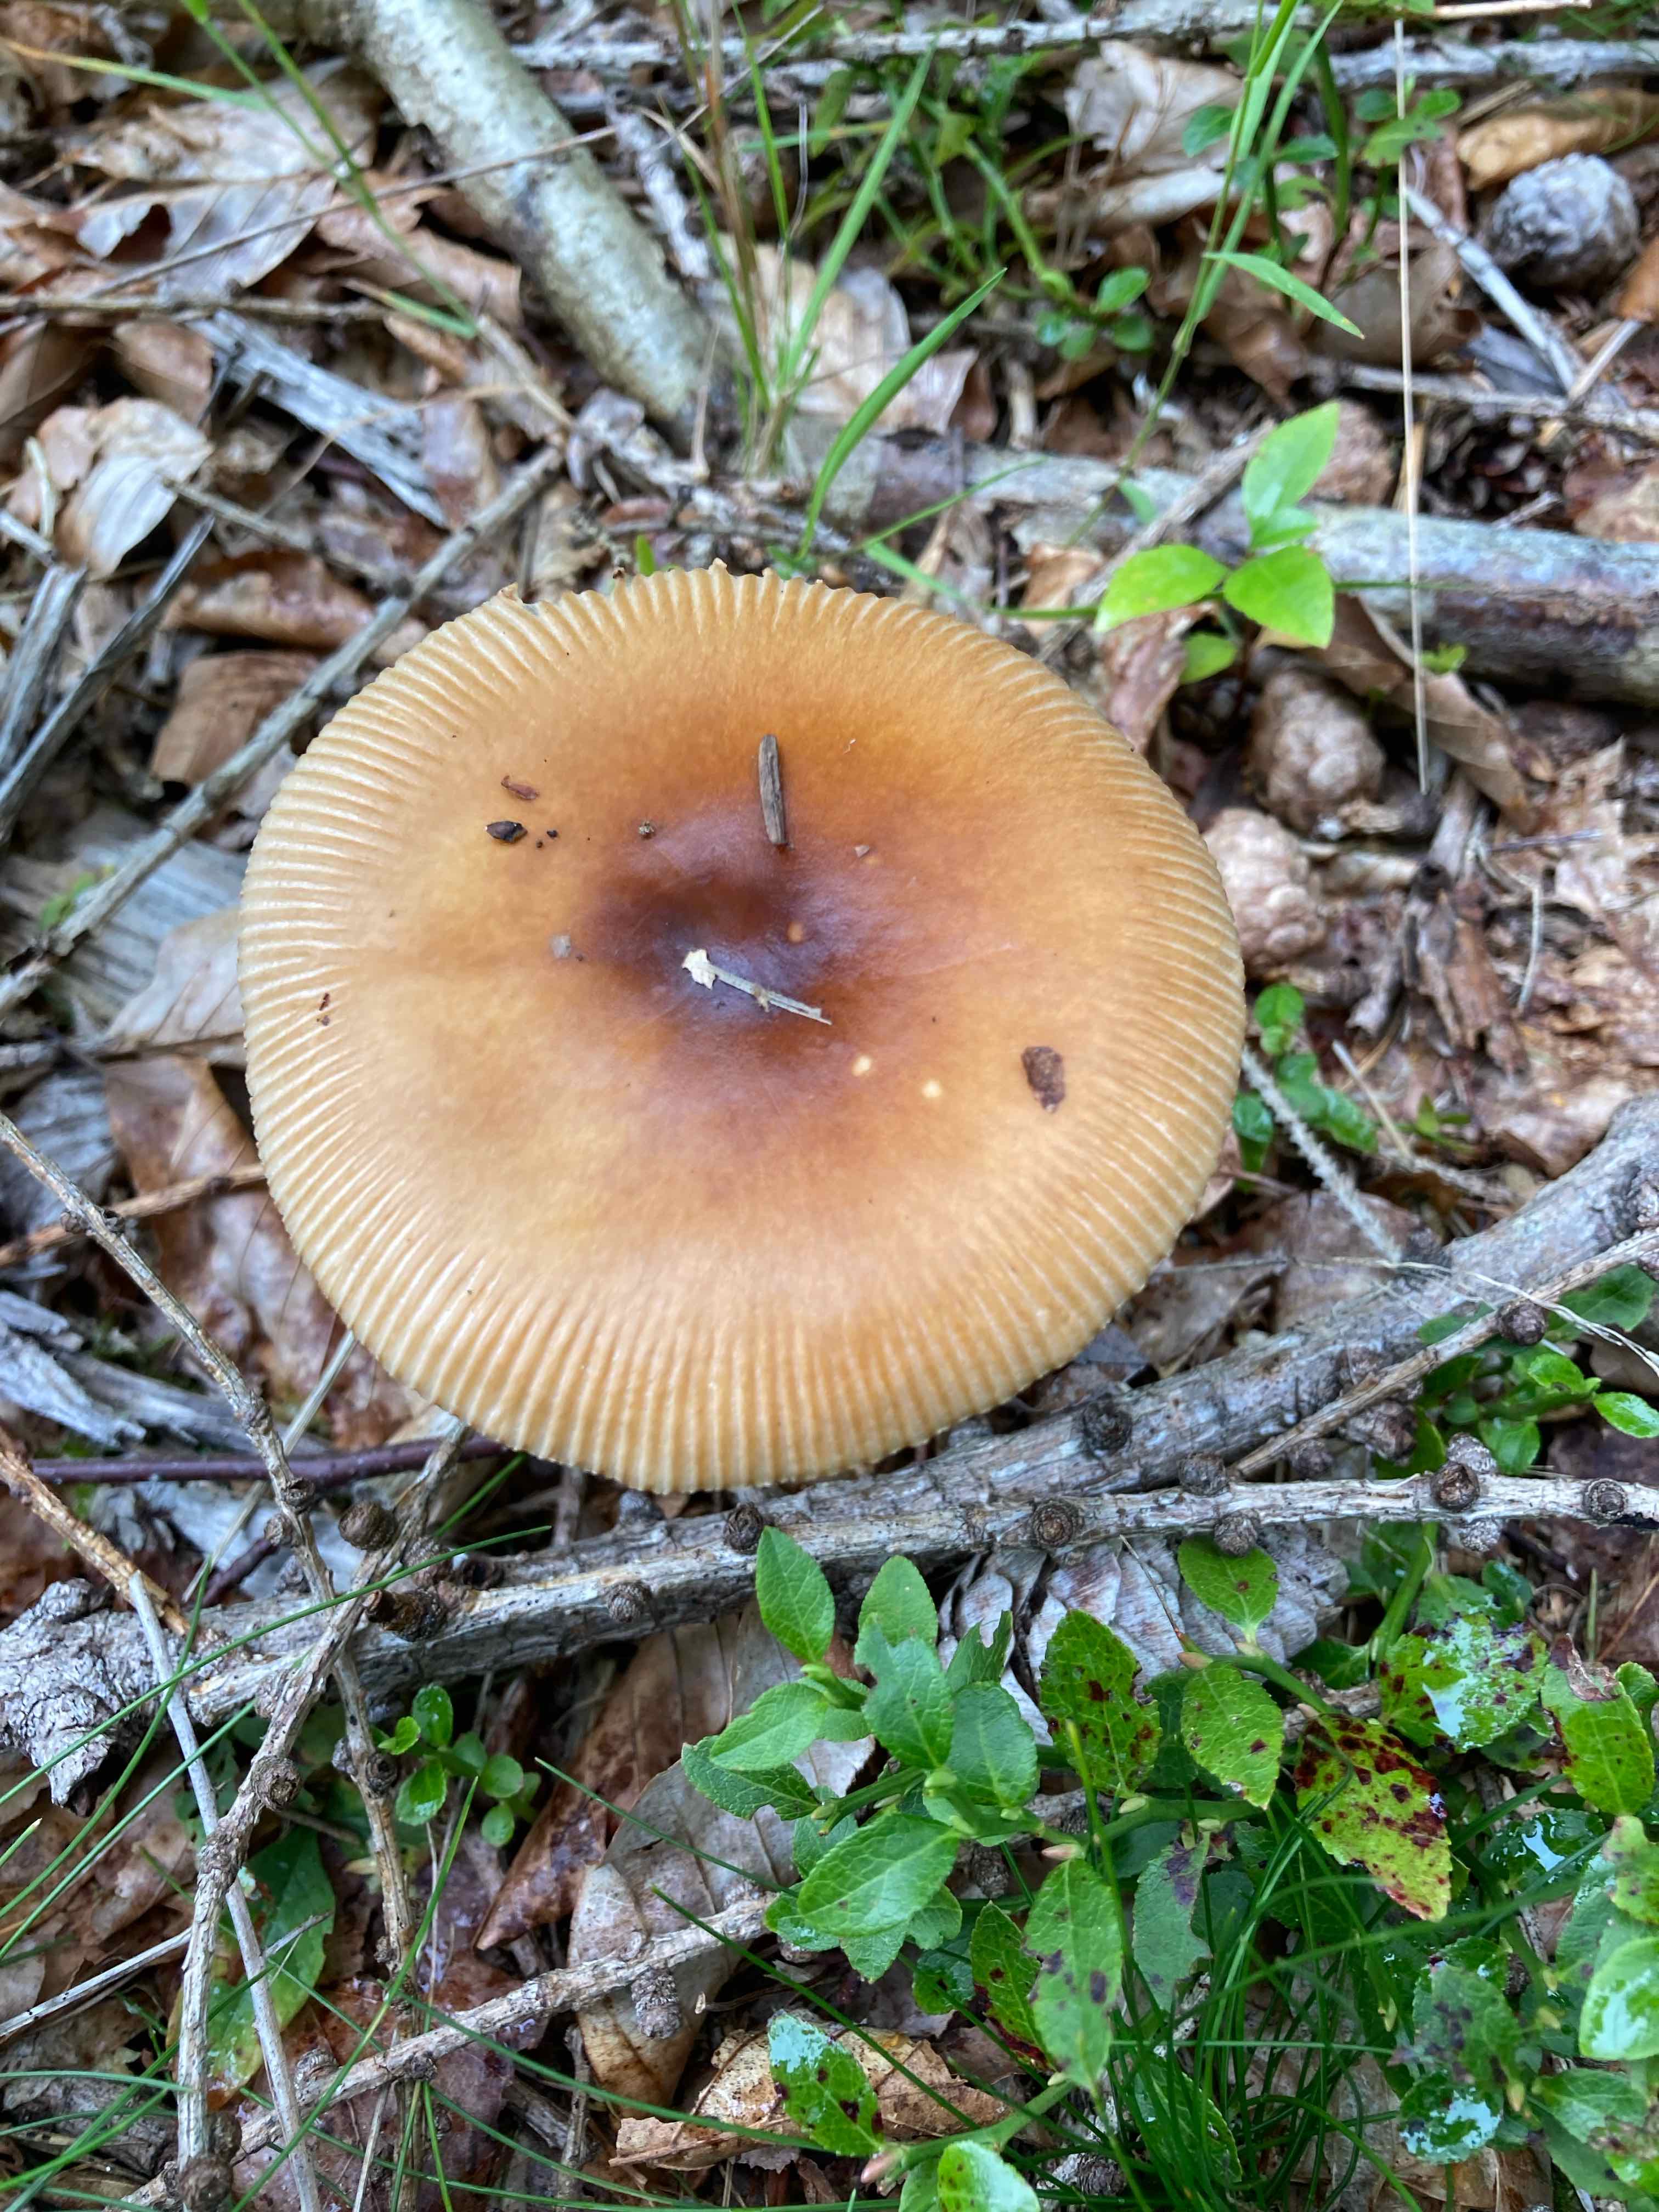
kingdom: Fungi
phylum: Basidiomycota
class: Agaricomycetes
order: Agaricales
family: Amanitaceae
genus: Amanita
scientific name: Amanita fulva
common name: brun kam-fluesvamp
